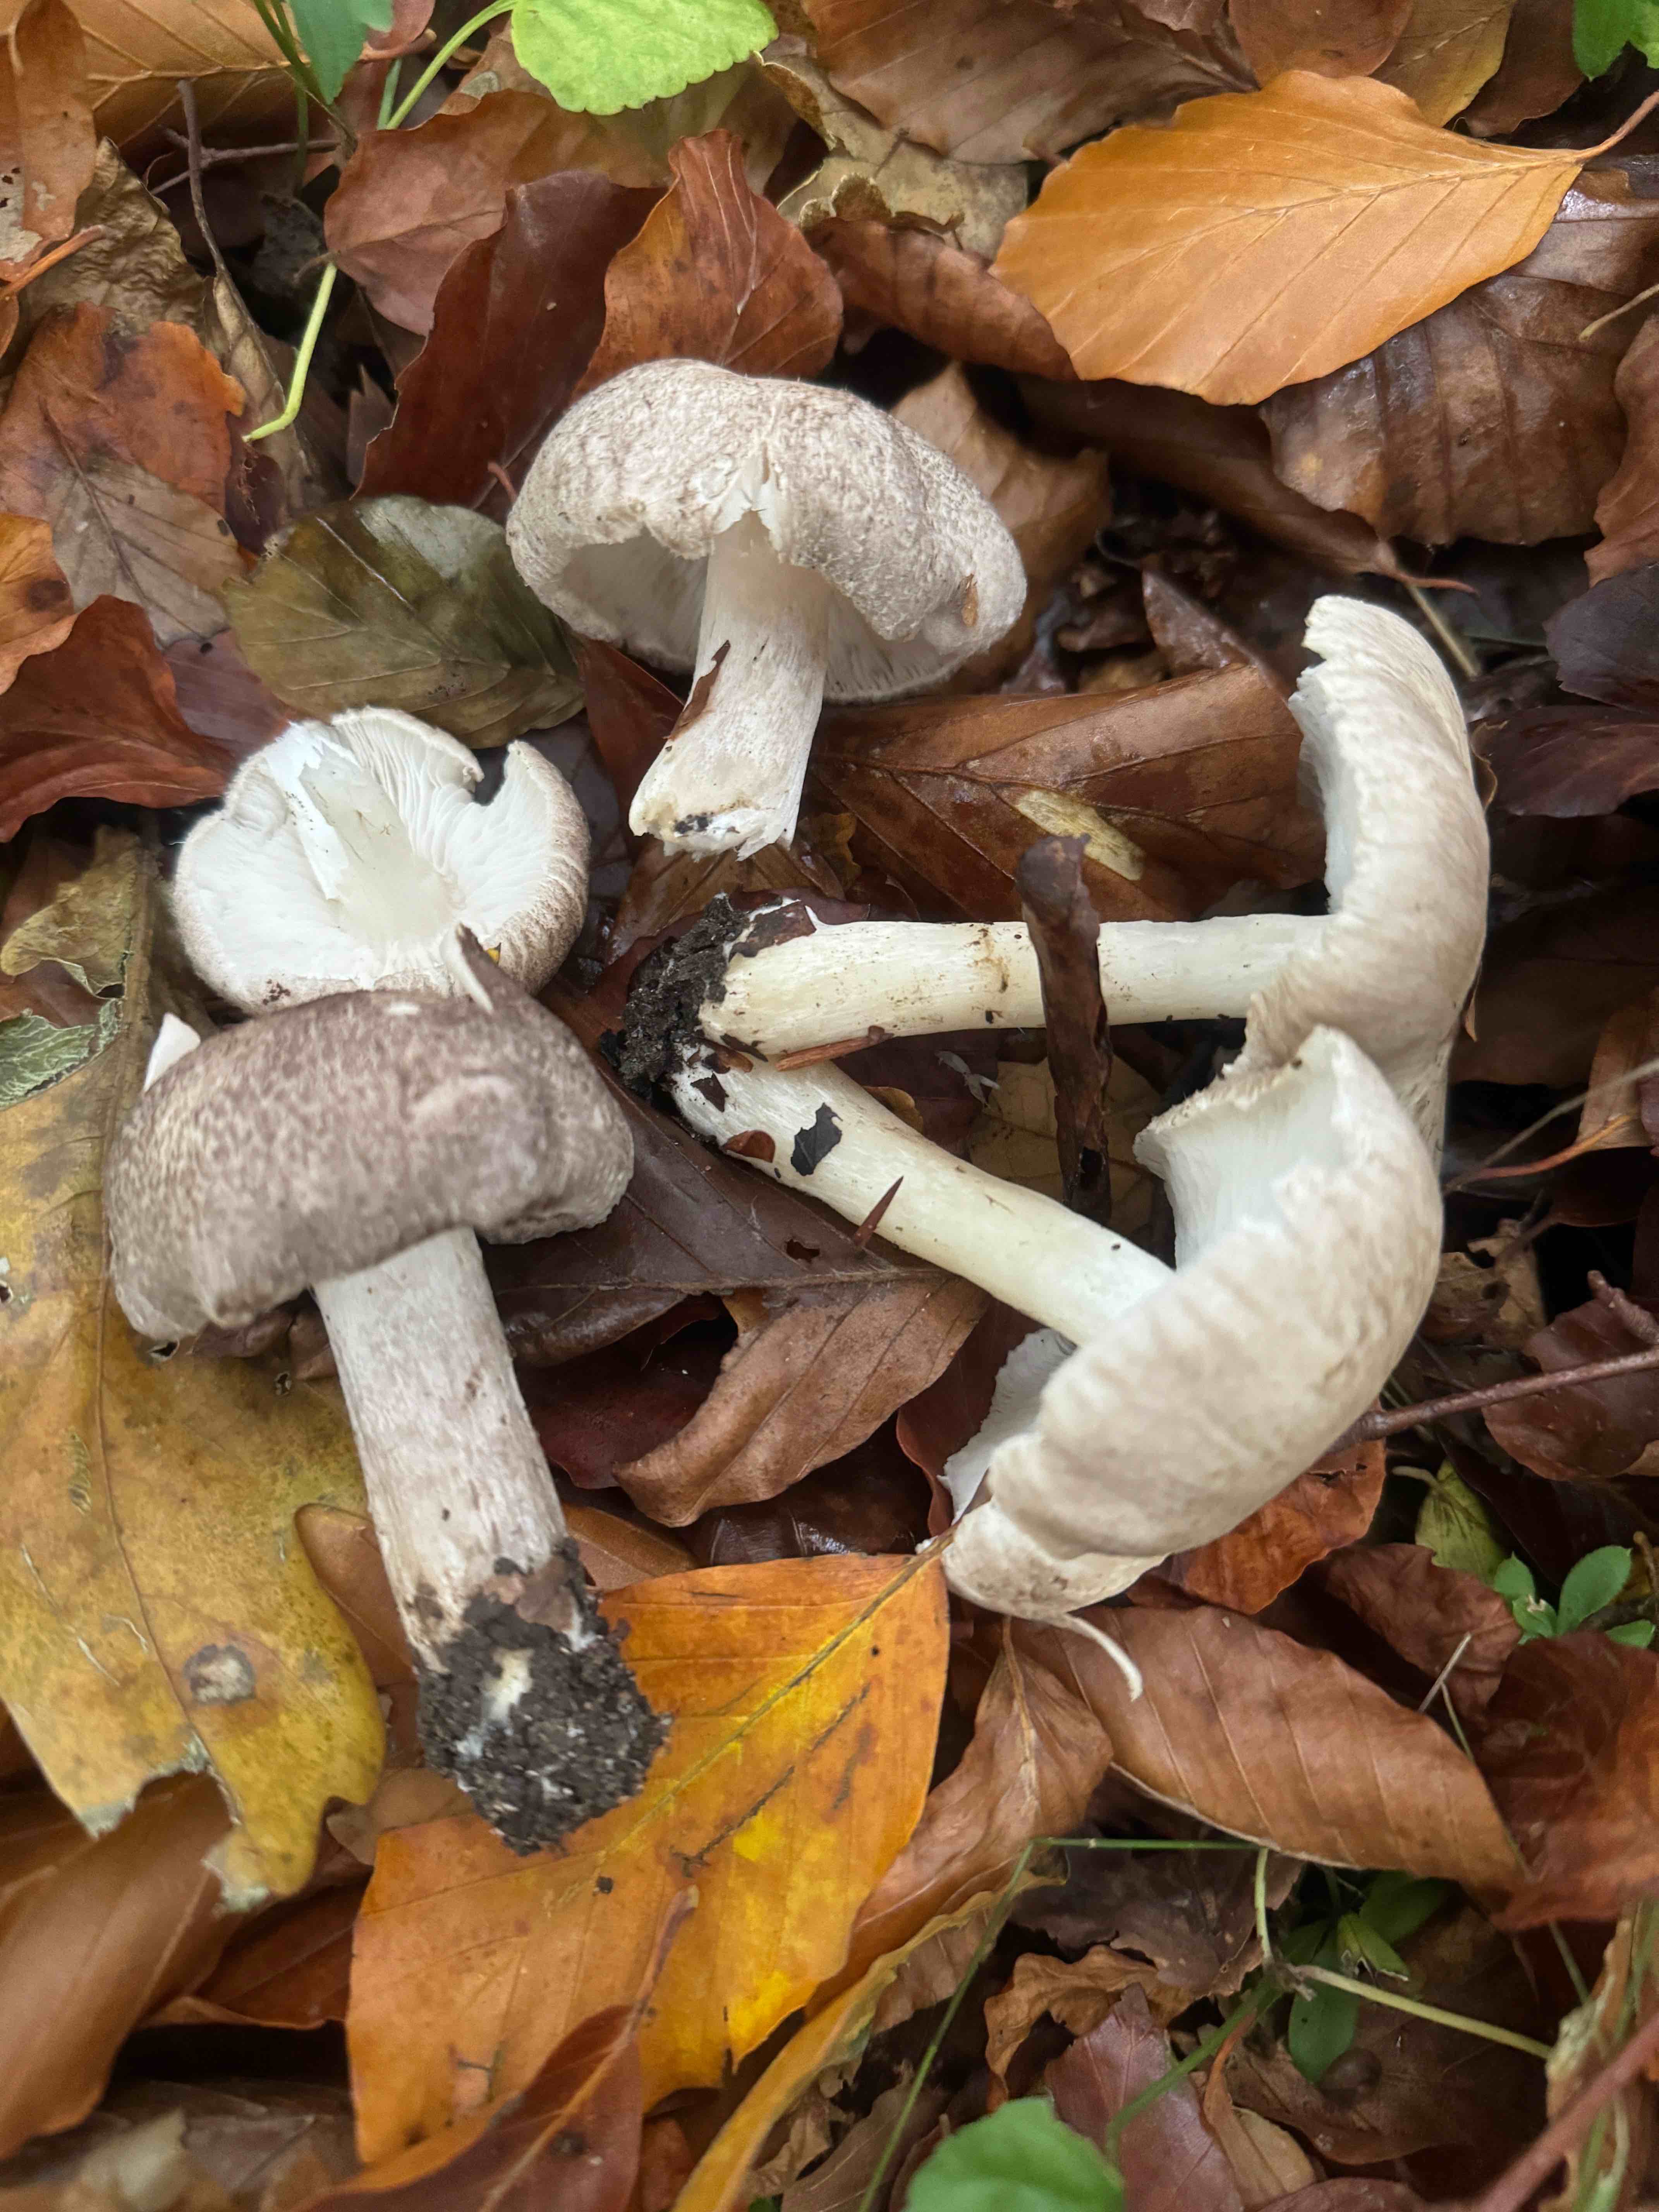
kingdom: Fungi
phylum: Basidiomycota
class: Agaricomycetes
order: Agaricales
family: Tricholomataceae
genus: Tricholoma
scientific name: Tricholoma scalpturatum
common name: gulplettet ridderhat
